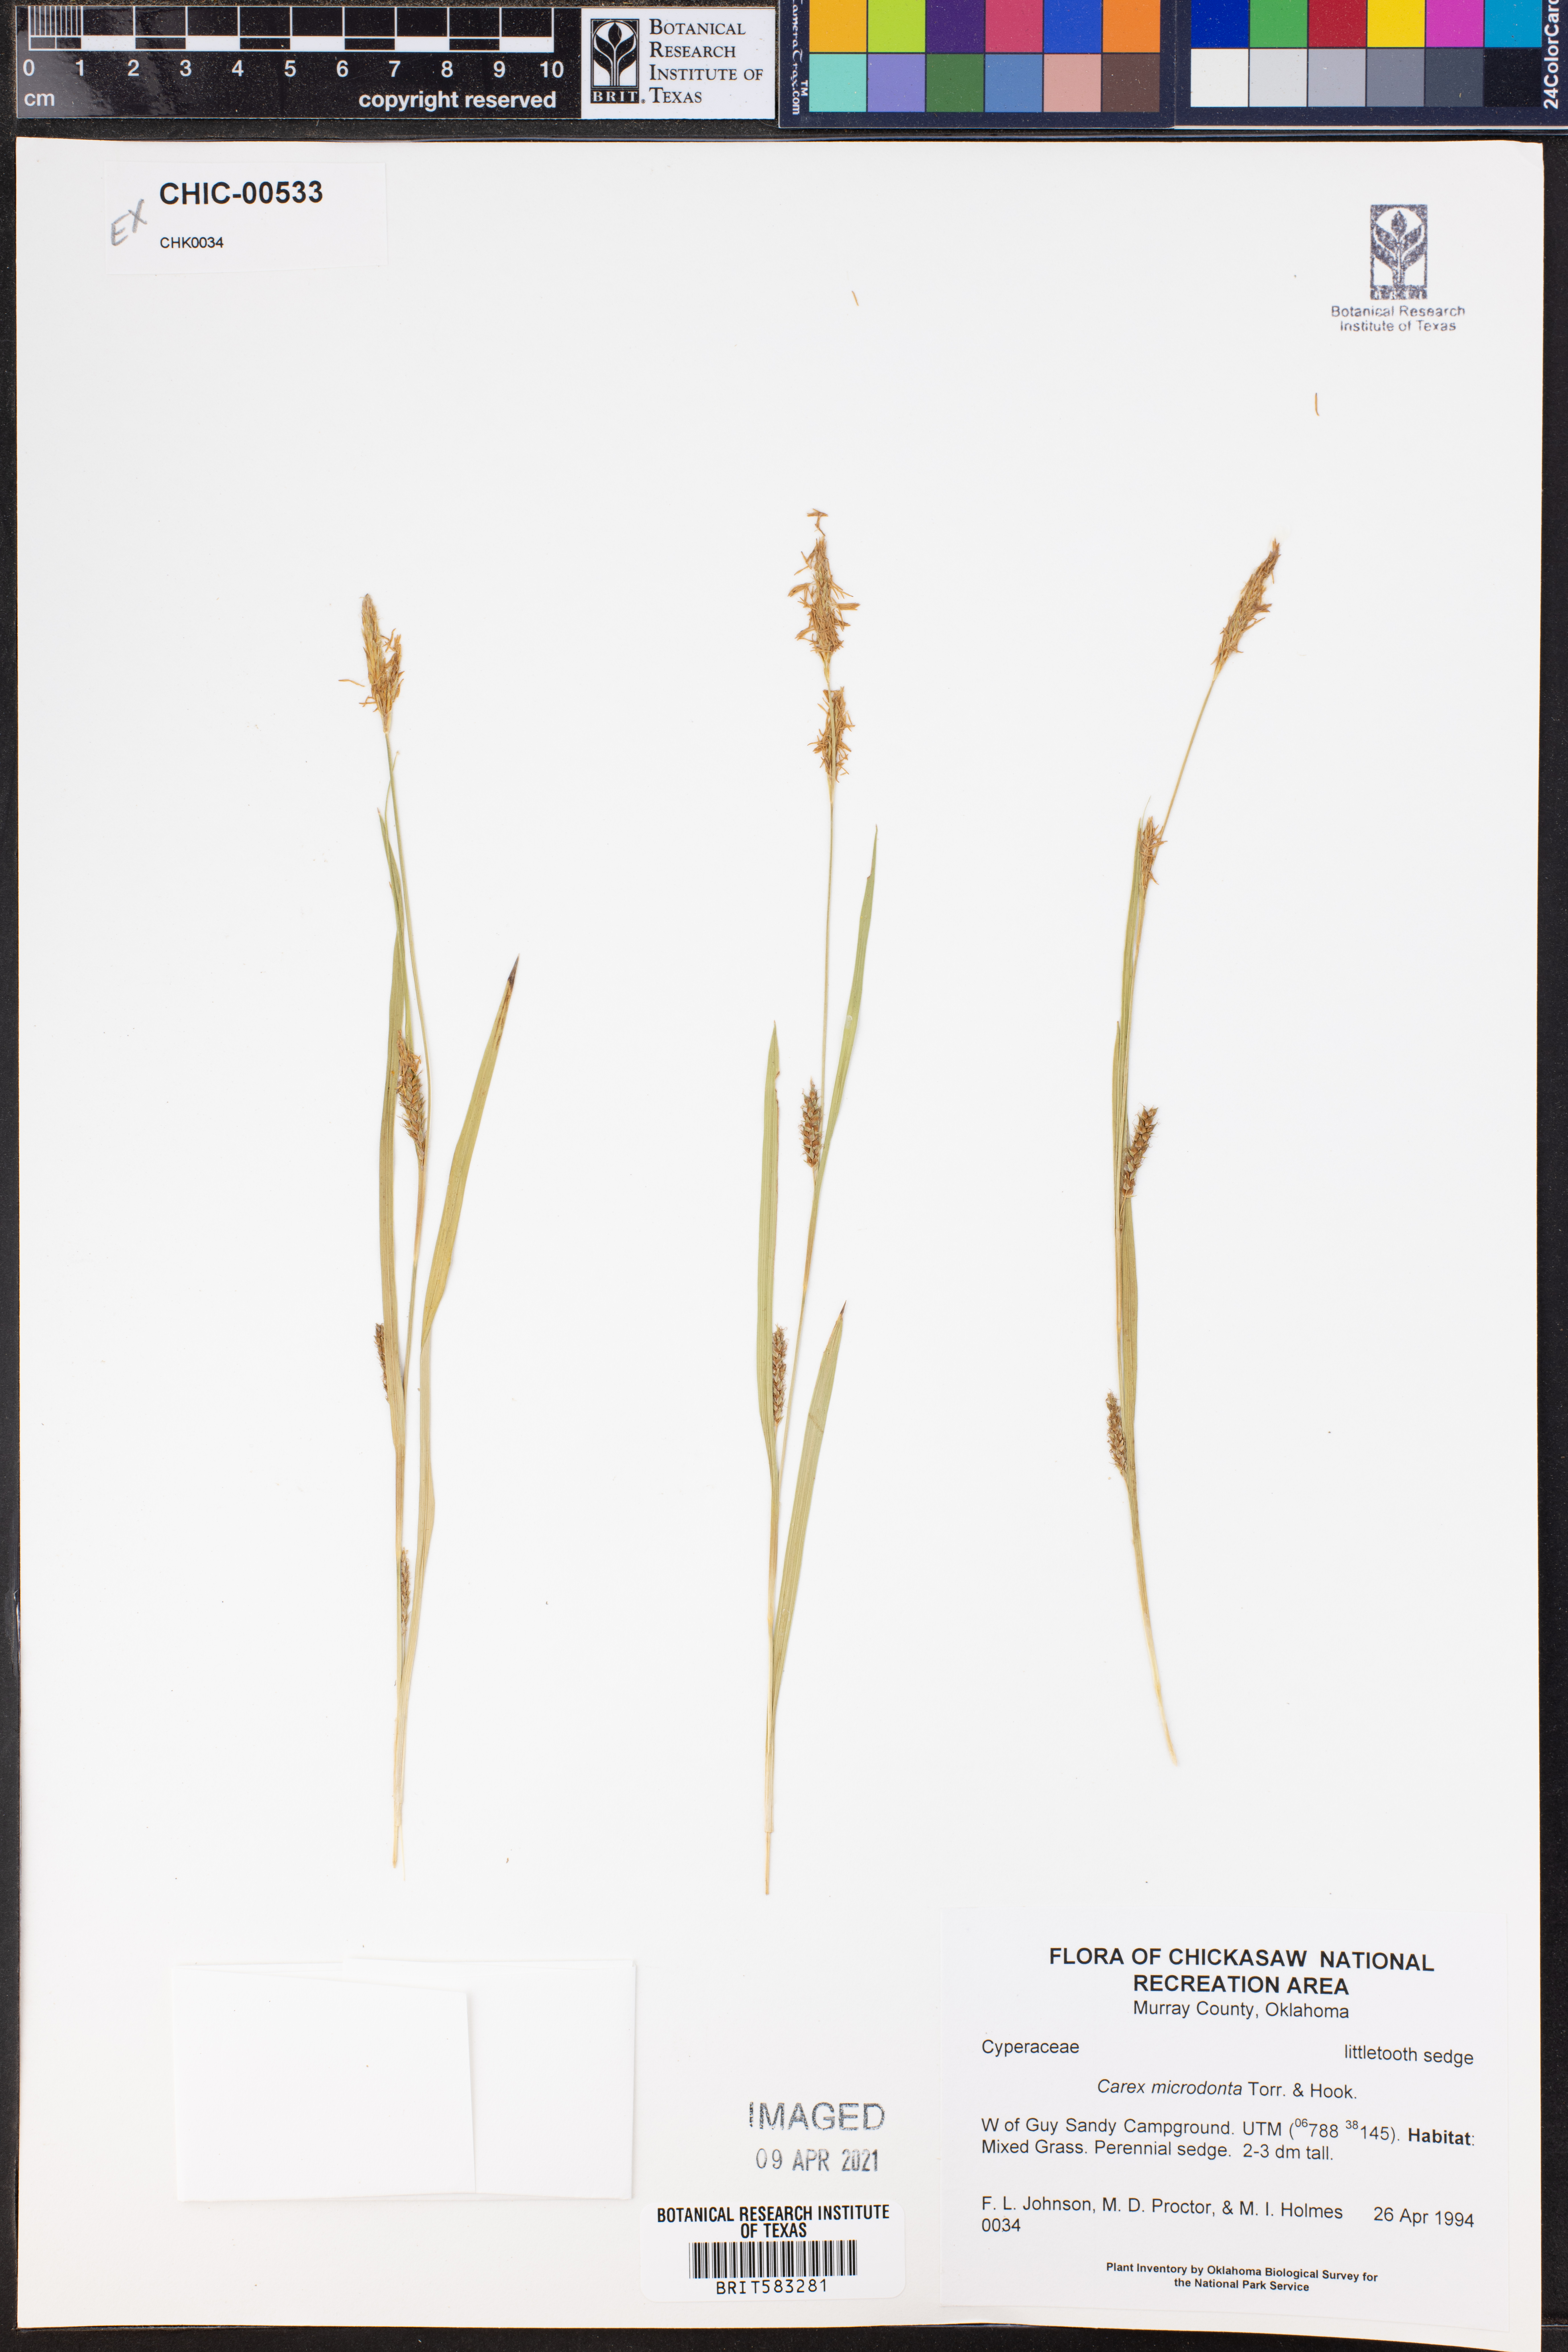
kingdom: Plantae
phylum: Tracheophyta
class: Liliopsida
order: Poales
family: Cyperaceae
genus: Carex
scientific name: Carex microdonta
